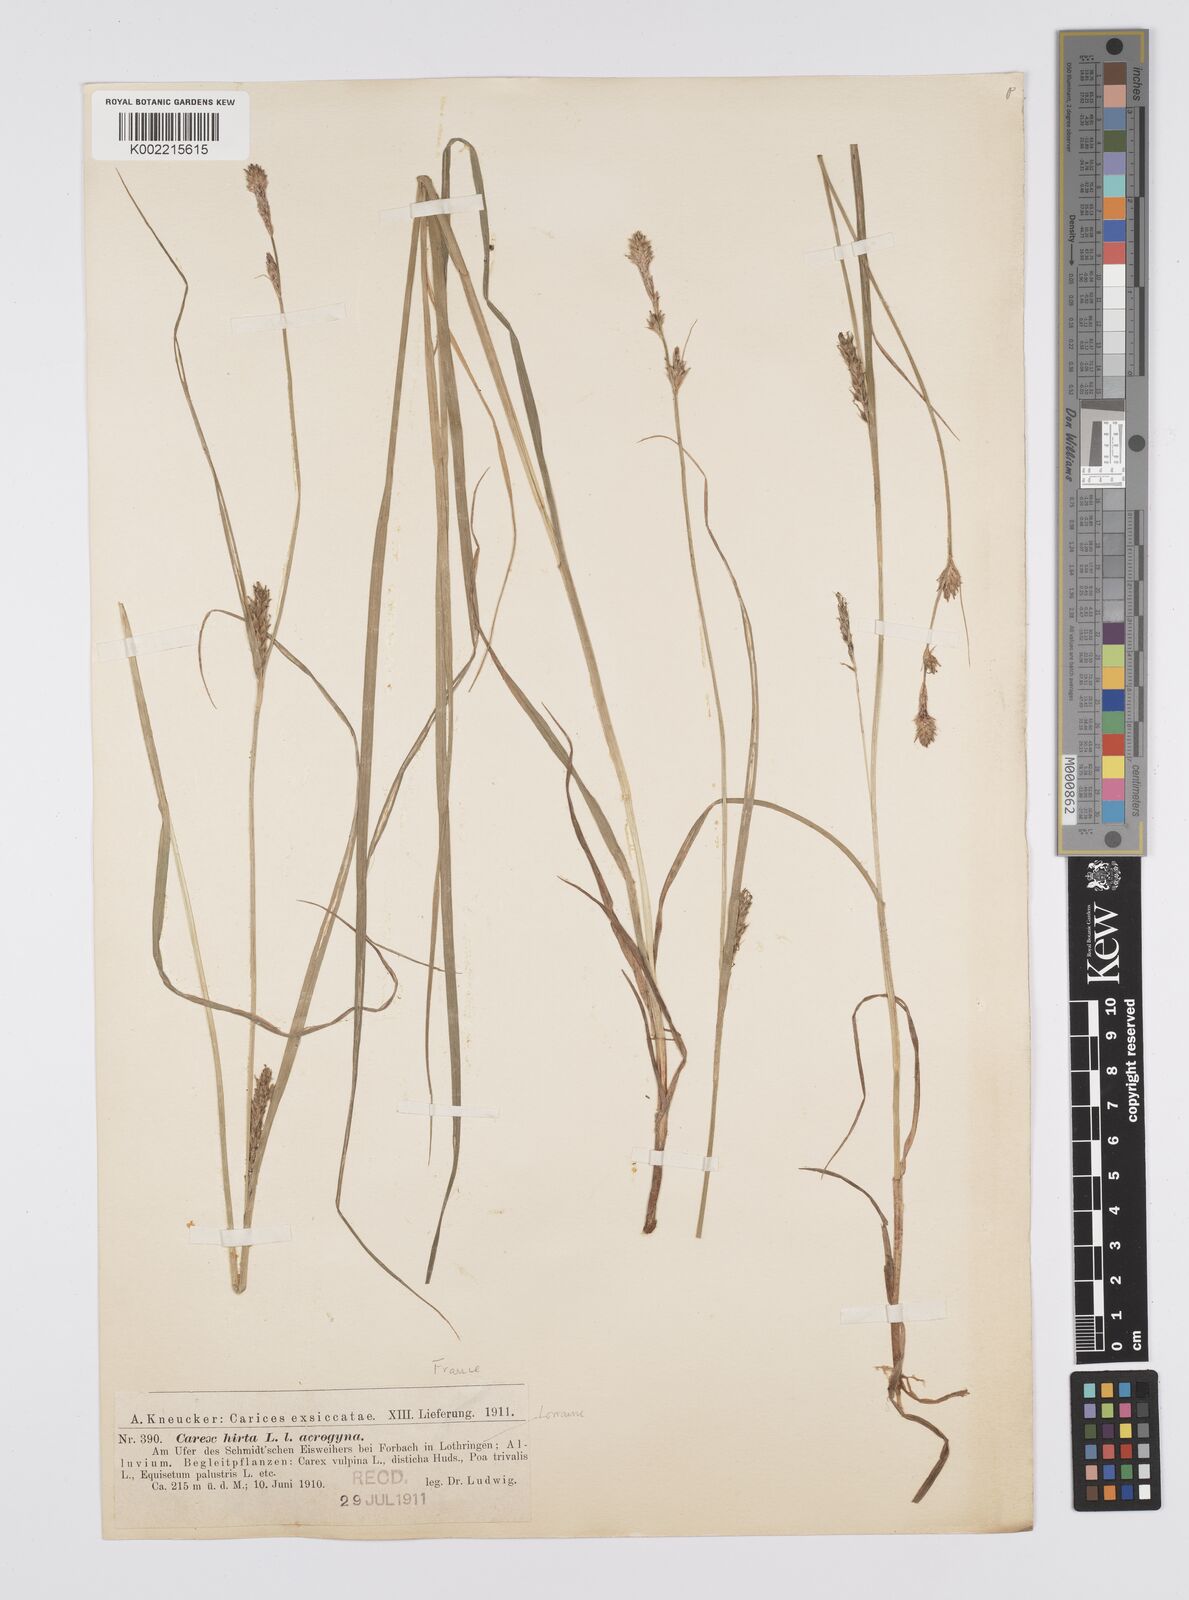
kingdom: Plantae
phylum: Tracheophyta
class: Liliopsida
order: Poales
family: Cyperaceae
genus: Carex
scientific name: Carex hirta
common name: Hairy sedge
